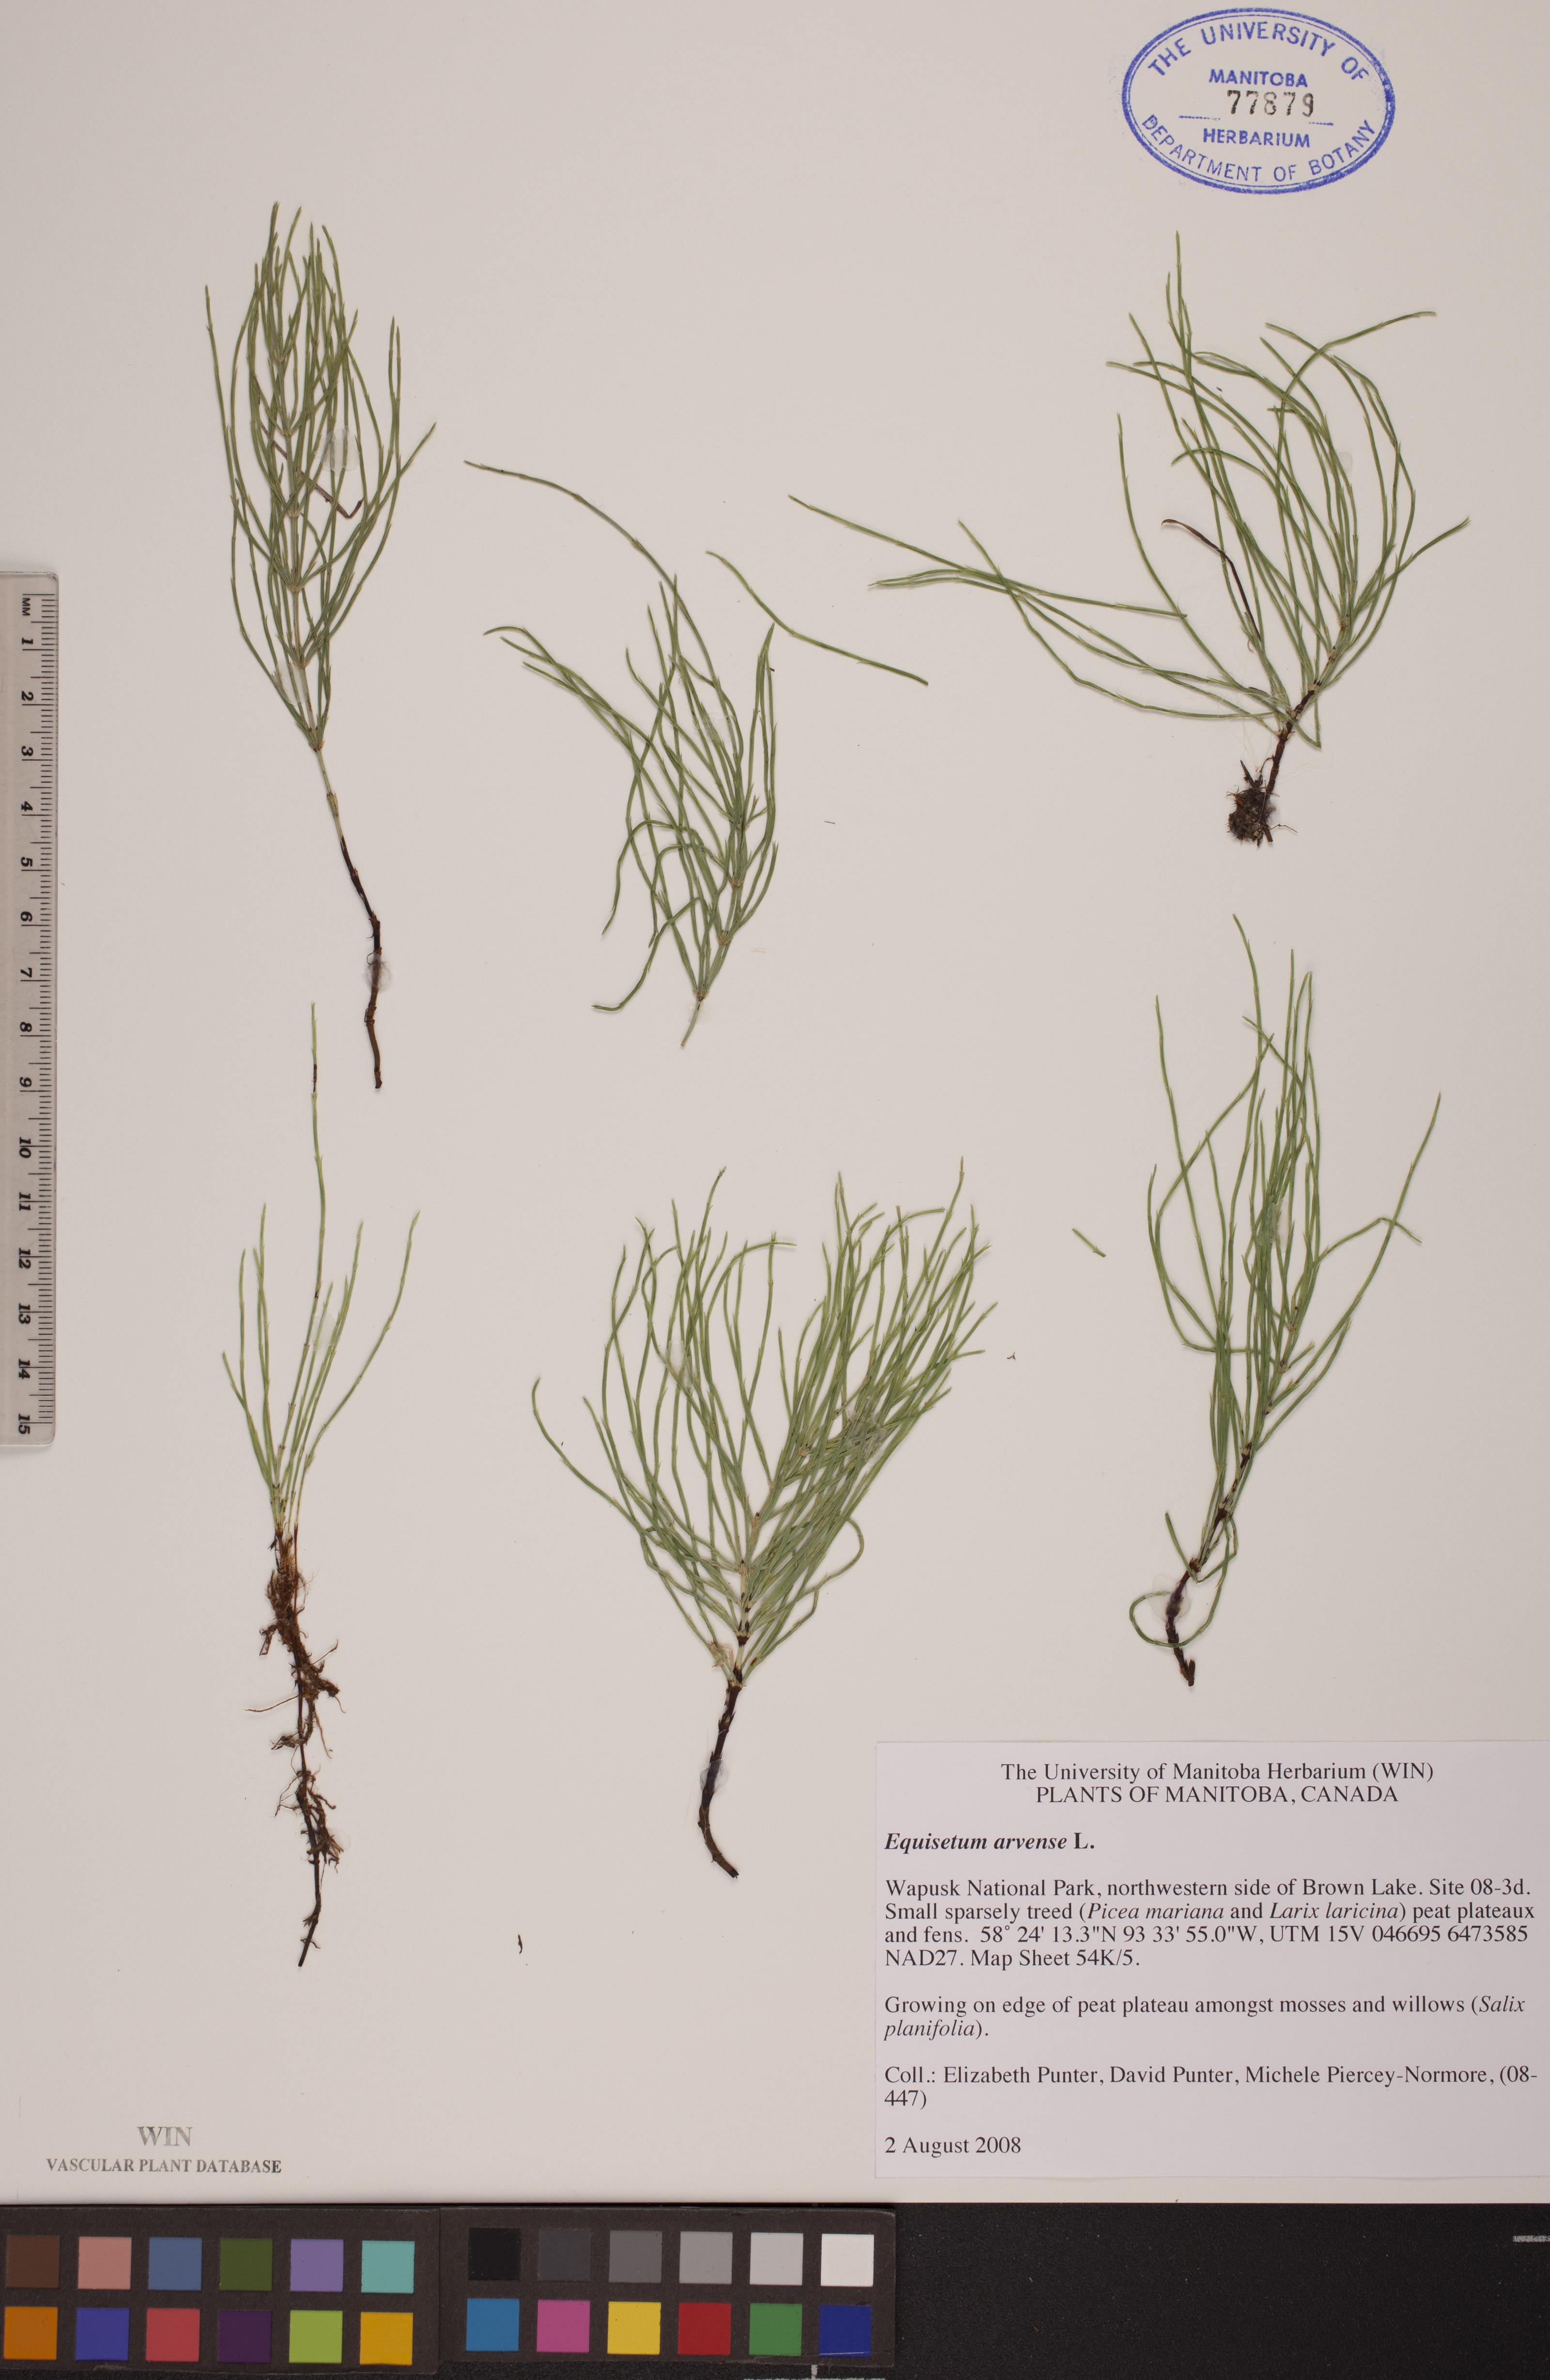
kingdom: Plantae
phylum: Tracheophyta
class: Polypodiopsida
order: Equisetales
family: Equisetaceae
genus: Equisetum
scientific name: Equisetum arvense
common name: Field horsetail
